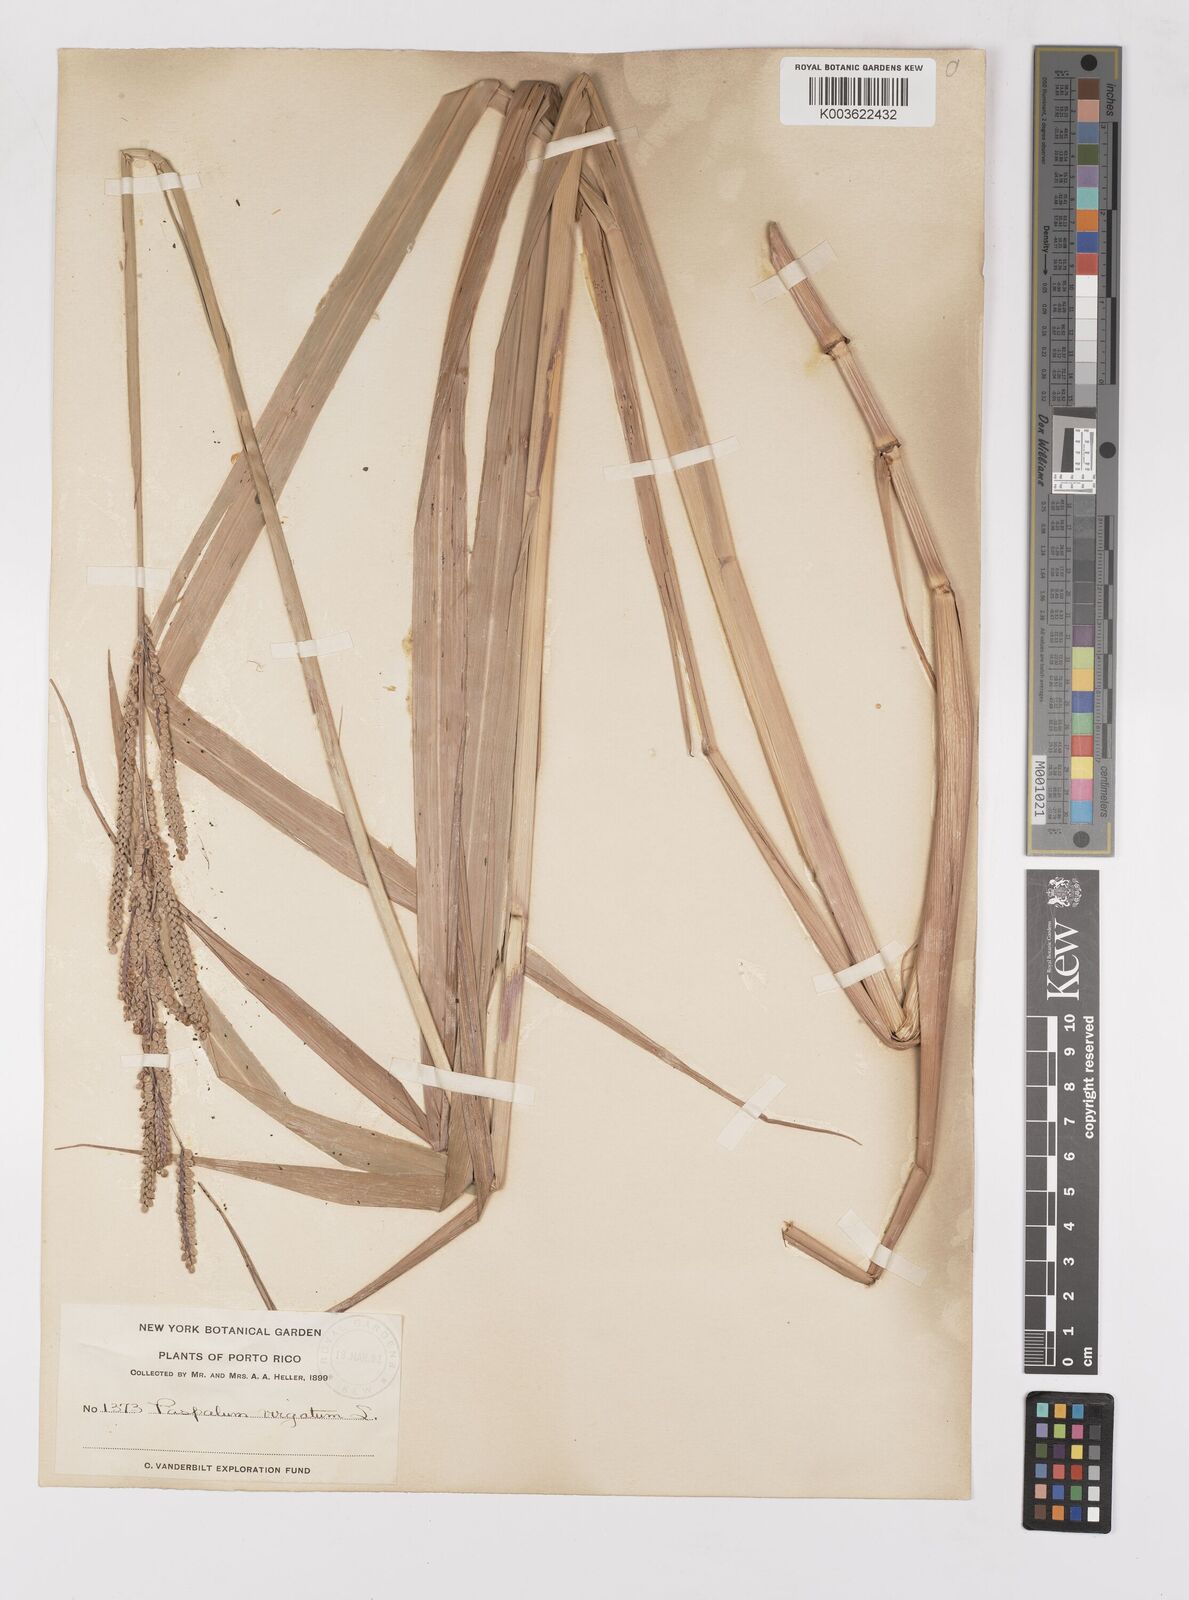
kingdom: Plantae
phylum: Tracheophyta
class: Liliopsida
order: Poales
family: Poaceae
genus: Paspalum
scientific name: Paspalum virgatum
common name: Talquezal
